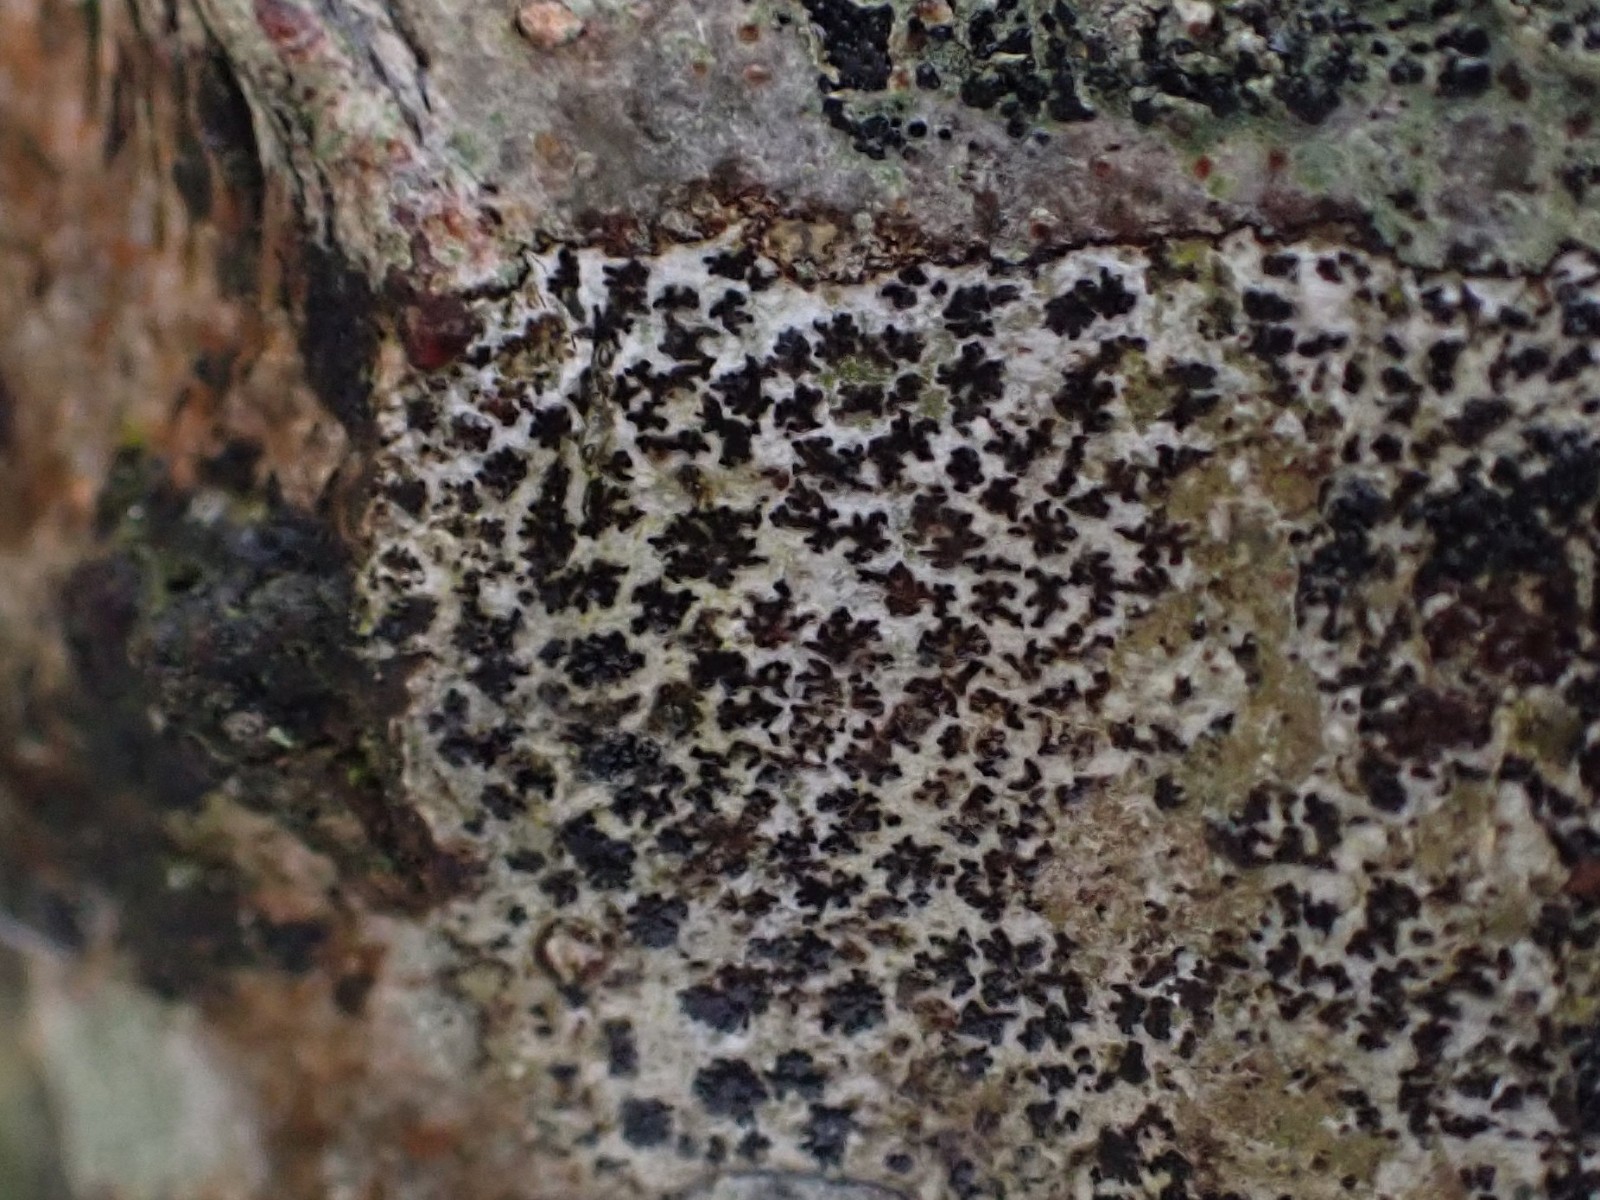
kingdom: Fungi
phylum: Ascomycota
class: Arthoniomycetes
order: Arthoniales
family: Arthoniaceae
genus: Arthonia
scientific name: Arthonia radiata
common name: stjerne-pletlav
